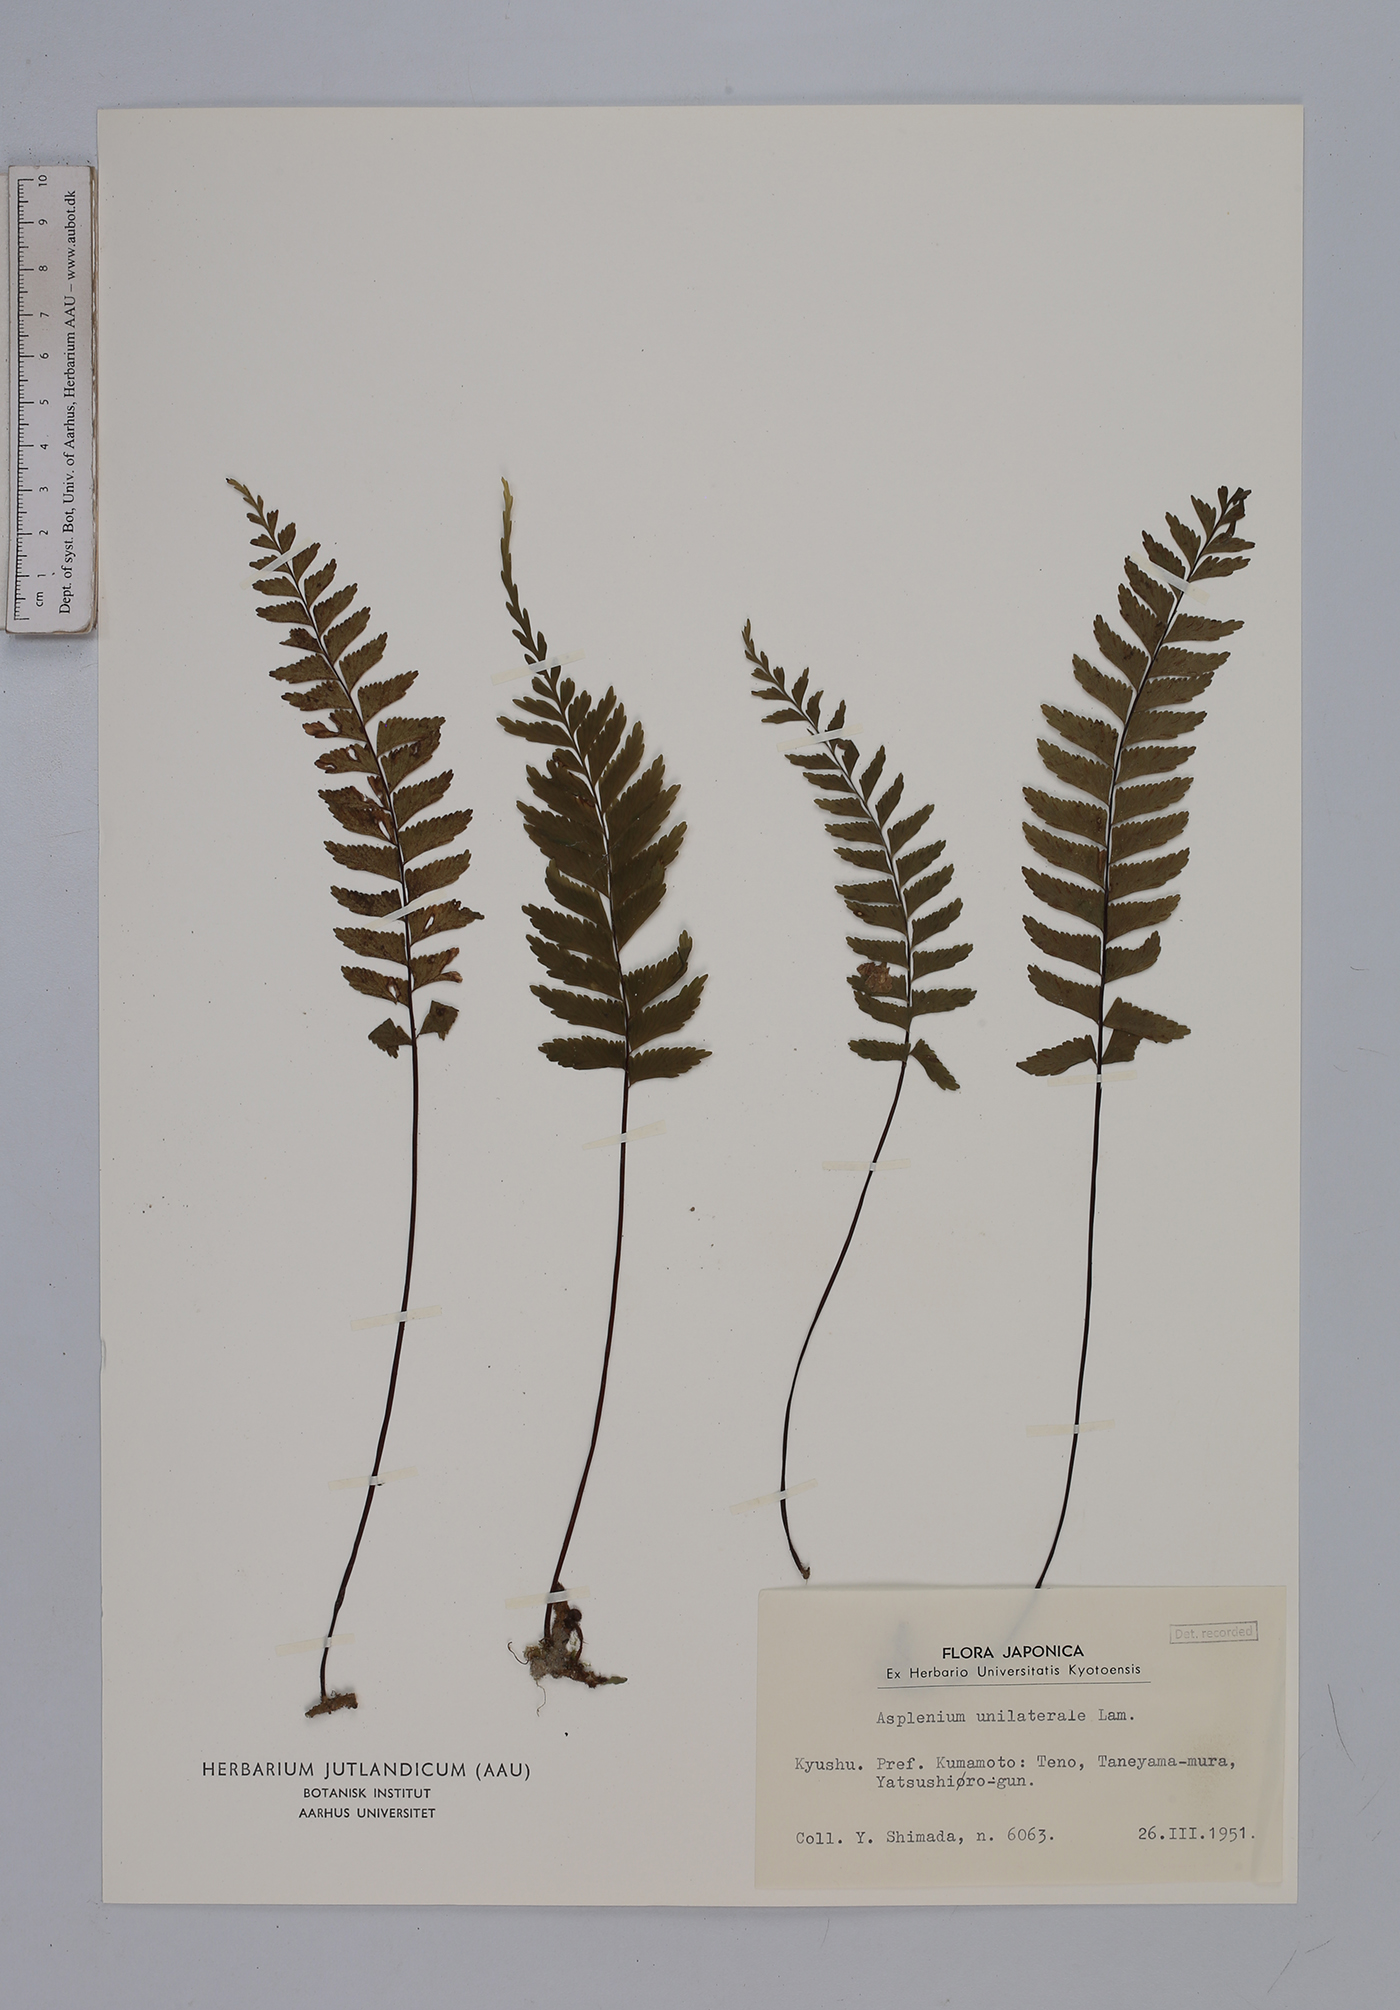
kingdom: Plantae
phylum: Tracheophyta
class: Polypodiopsida
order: Polypodiales
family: Aspleniaceae
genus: Hymenasplenium
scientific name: Hymenasplenium unilaterale
